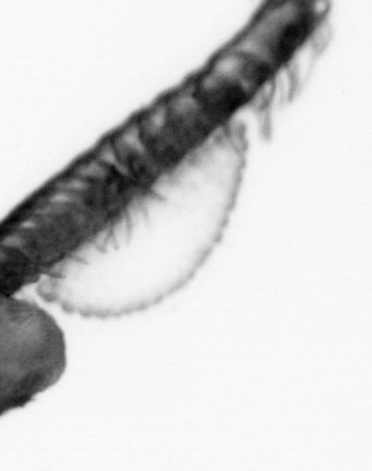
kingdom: Animalia
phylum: Annelida
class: Polychaeta
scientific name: Polychaeta
